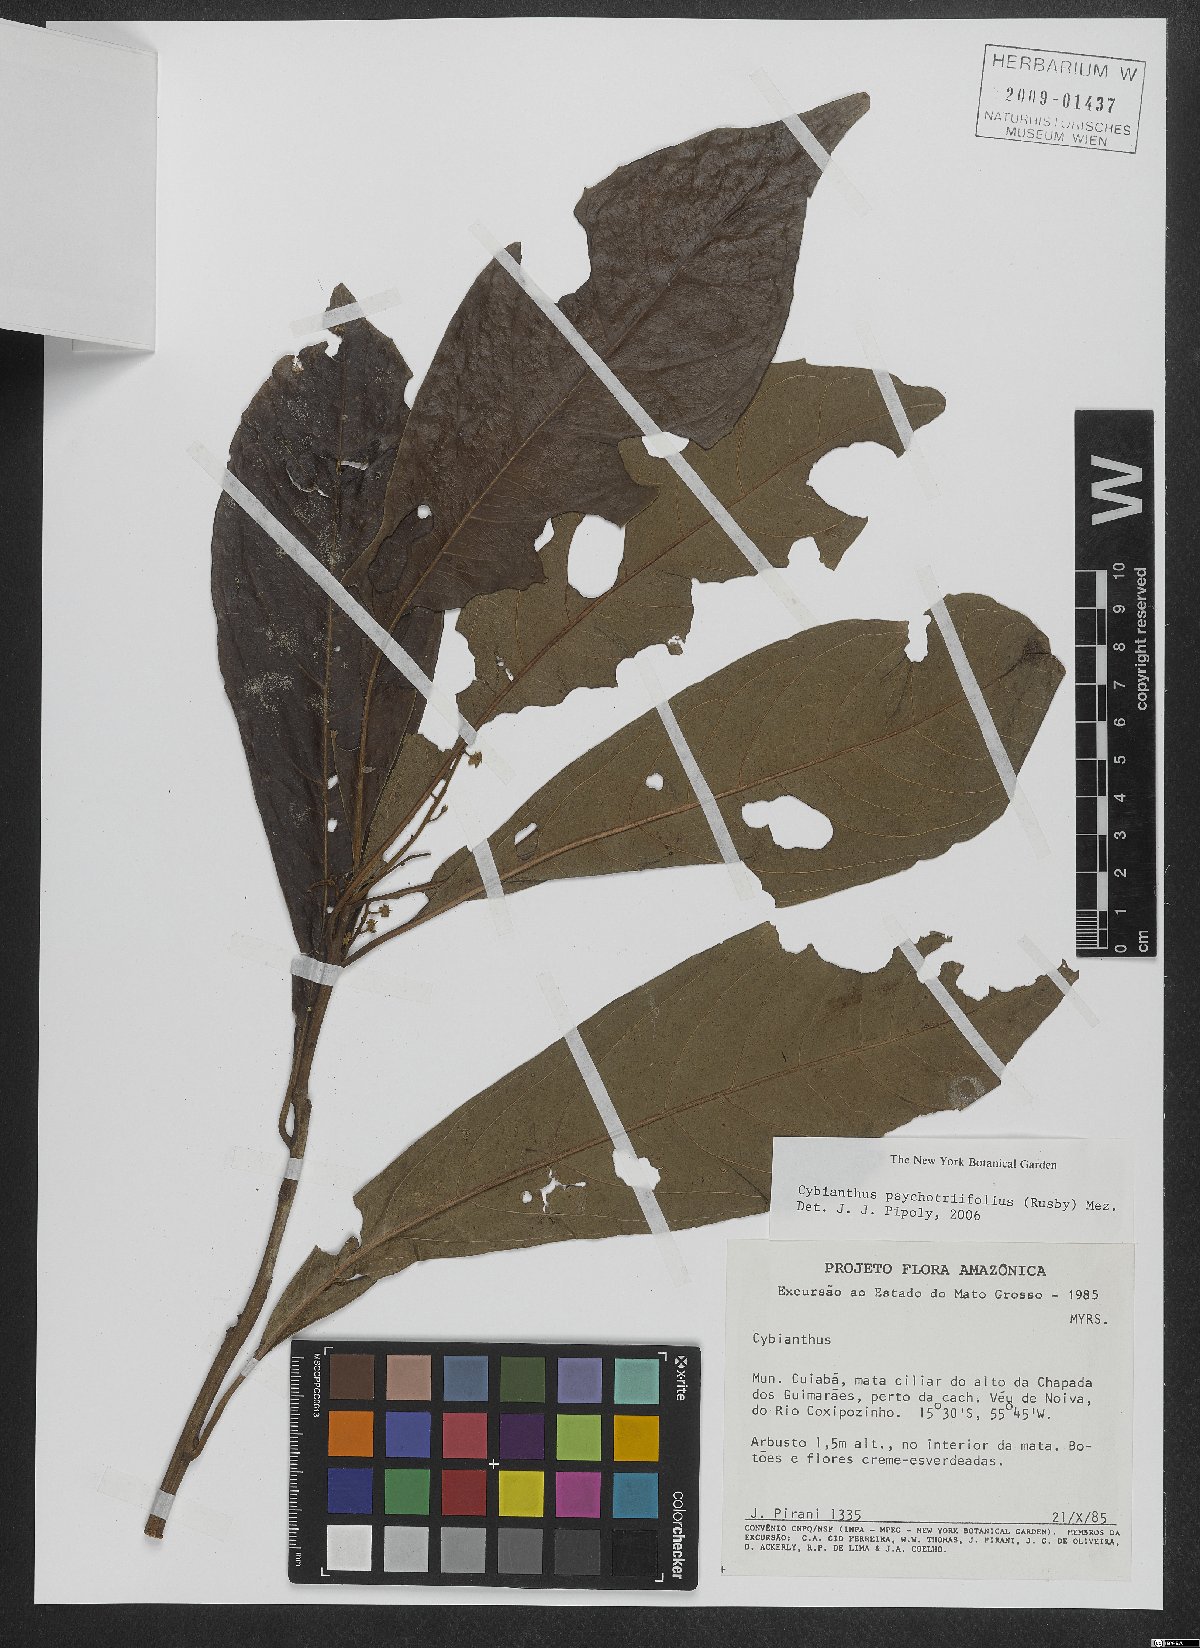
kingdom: Plantae
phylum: Tracheophyta
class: Magnoliopsida
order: Ericales
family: Primulaceae
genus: Cybianthus
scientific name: Cybianthus psychotriifolius
